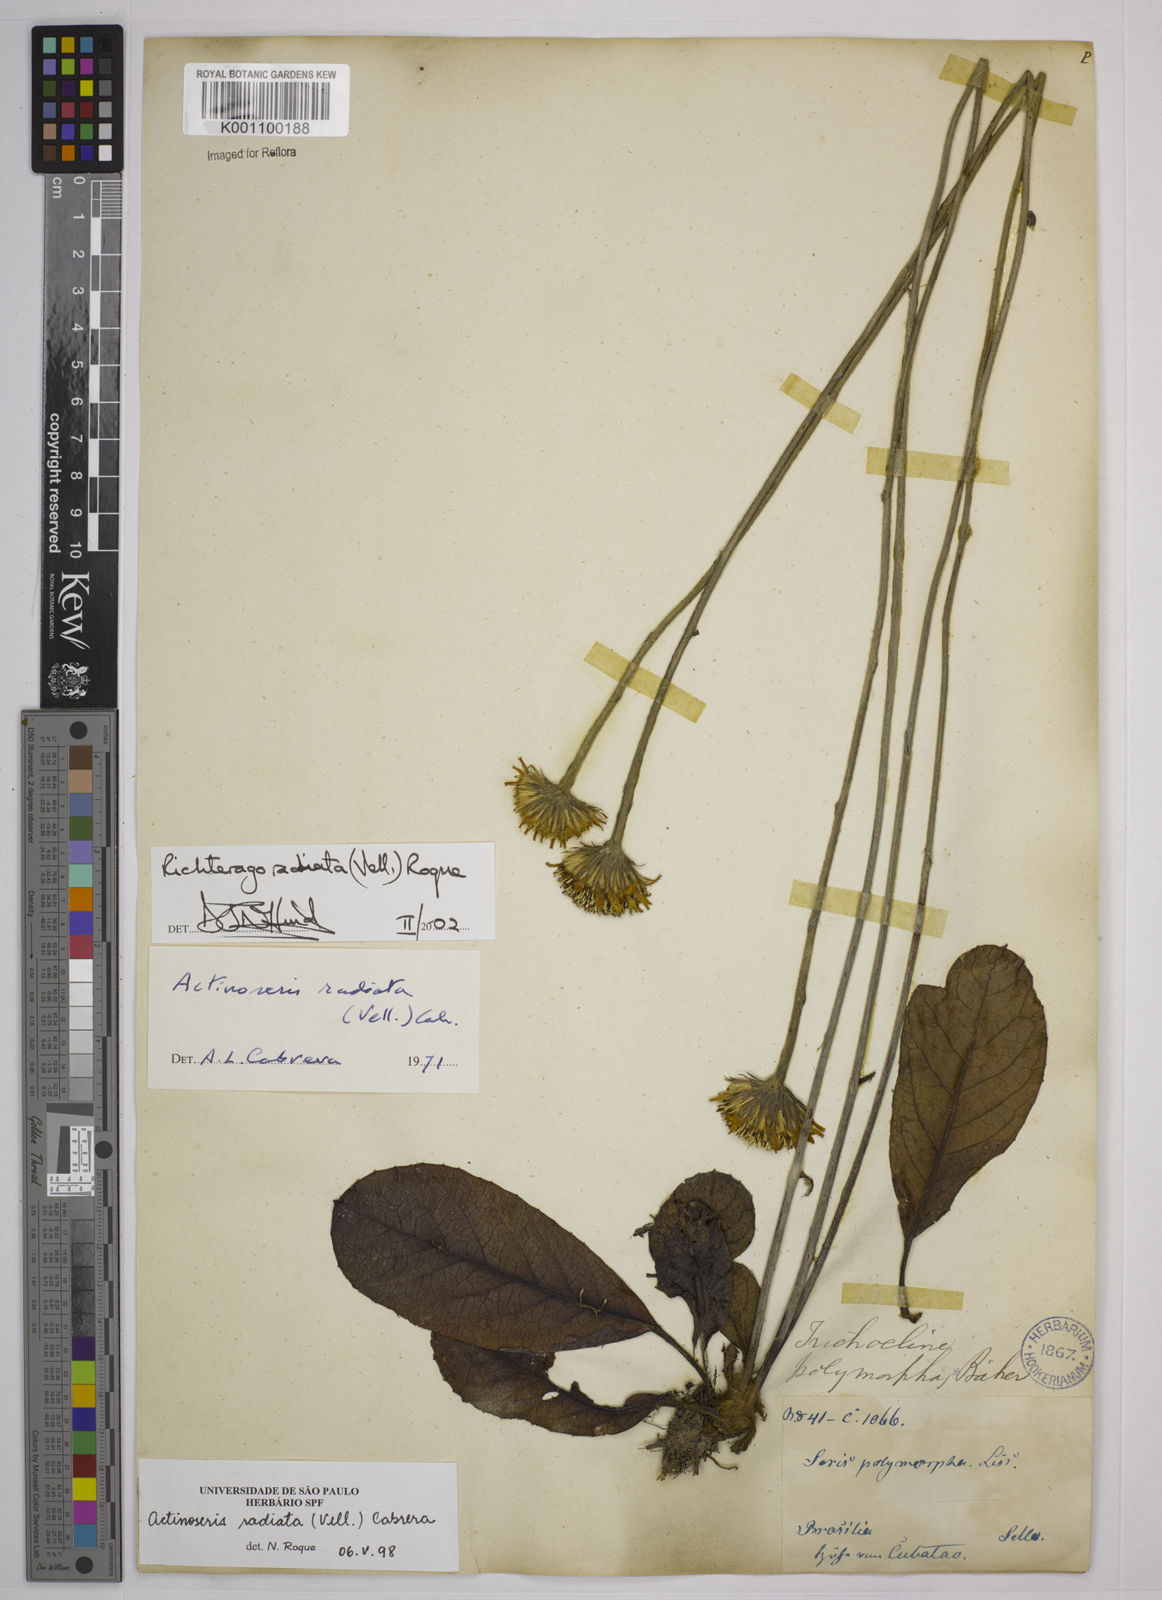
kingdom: Plantae
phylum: Tracheophyta
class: Magnoliopsida
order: Asterales
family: Asteraceae
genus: Richterago
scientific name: Richterago radiata
